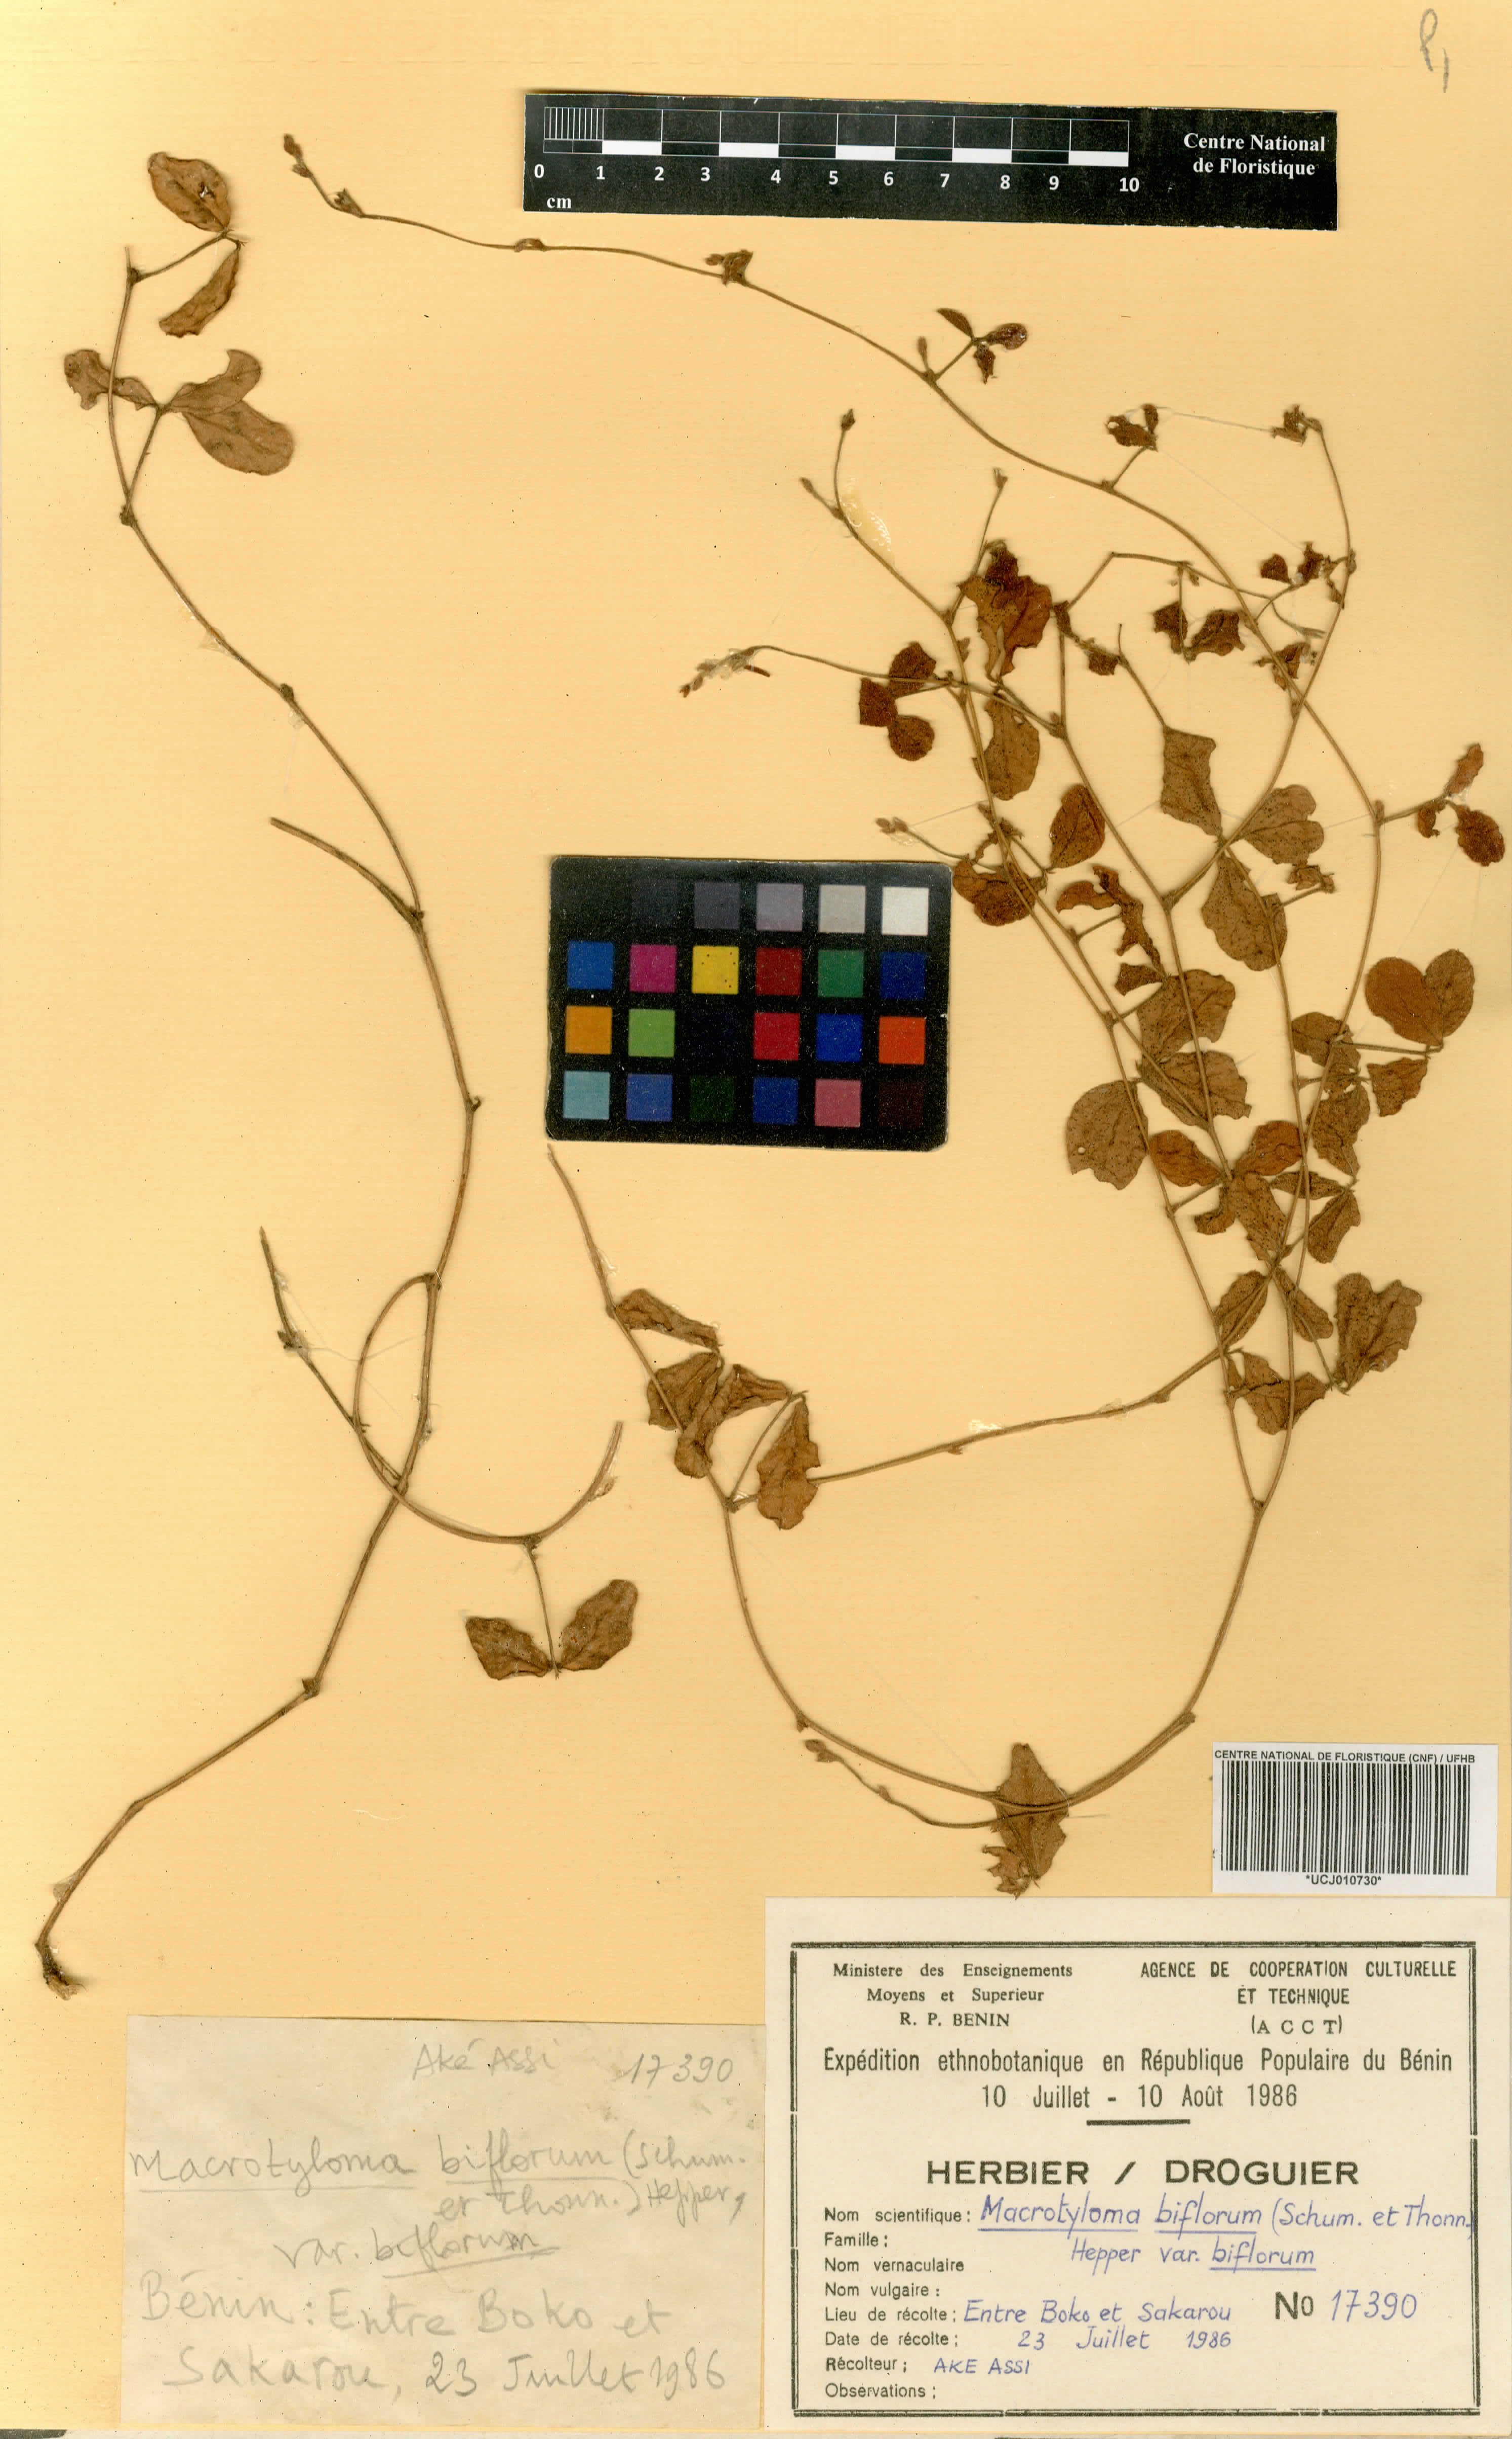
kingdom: Plantae
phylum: Tracheophyta
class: Magnoliopsida
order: Fabales
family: Fabaceae
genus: Macrotyloma
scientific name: Macrotyloma biflorum
